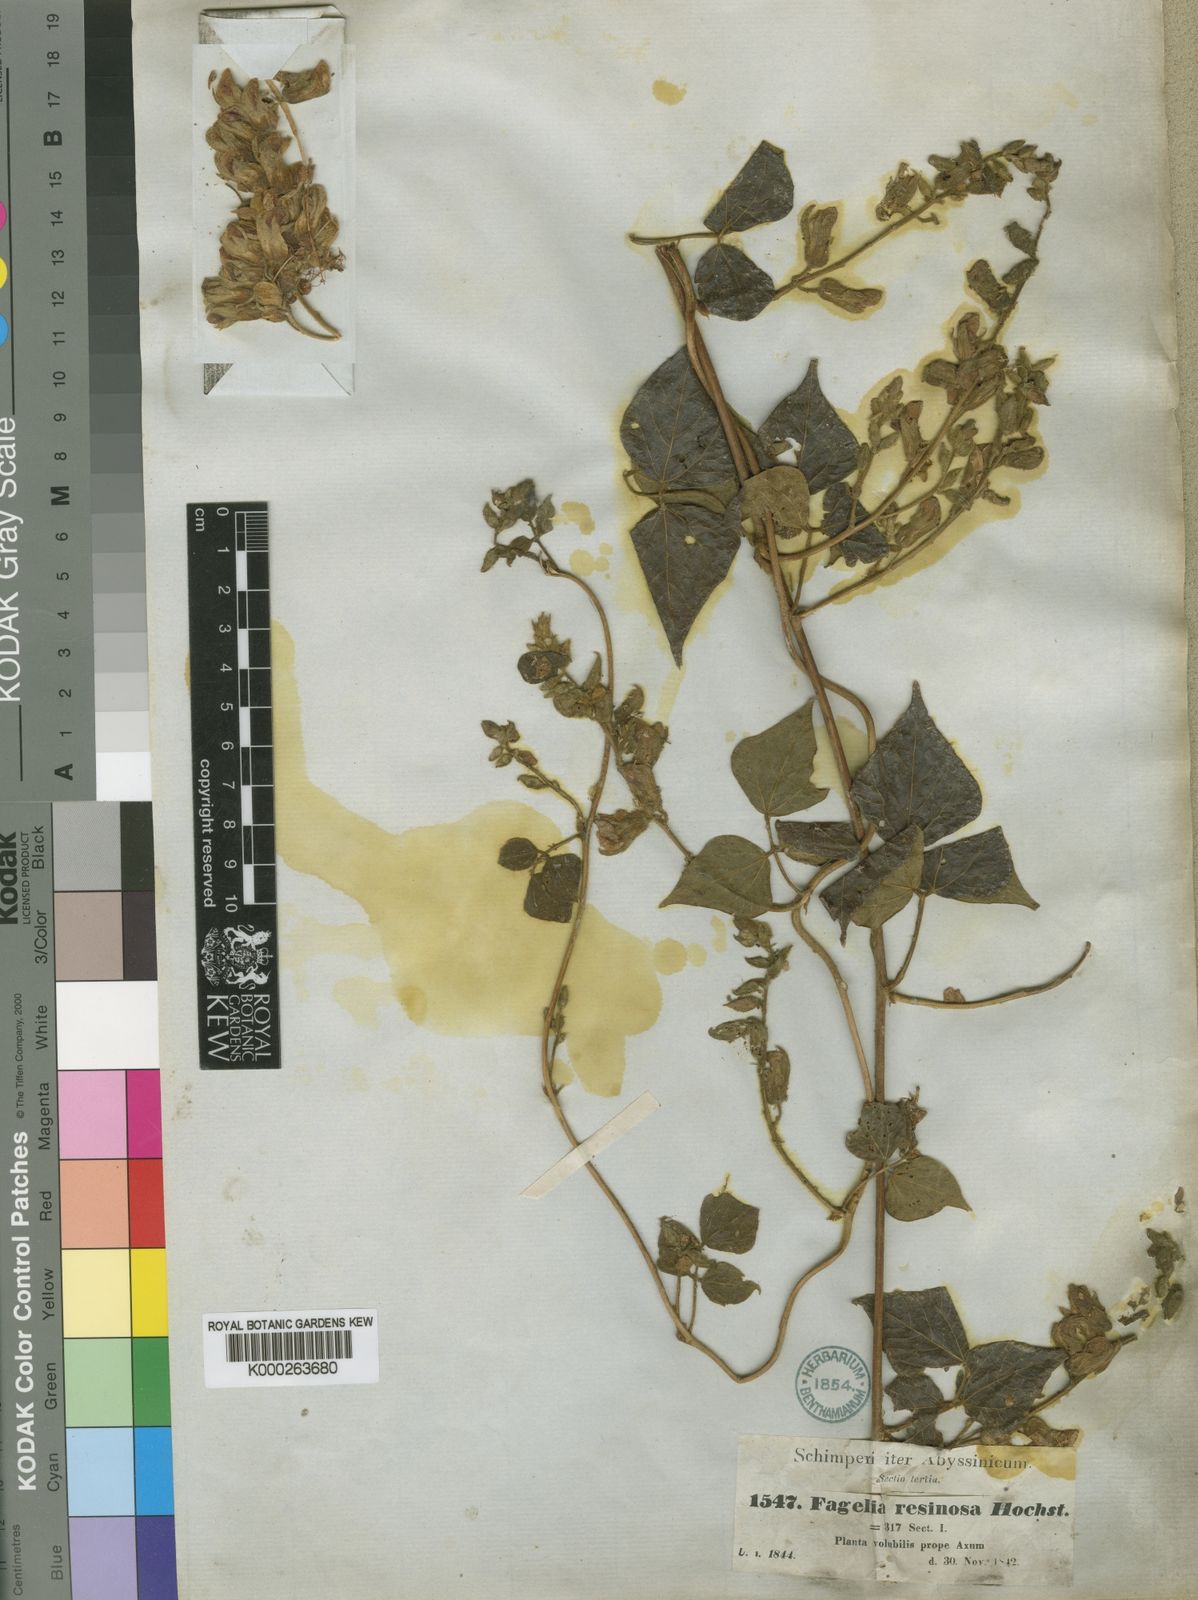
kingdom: Plantae
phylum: Tracheophyta
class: Magnoliopsida
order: Fabales
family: Fabaceae
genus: Rhynchosia
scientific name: Rhynchosia resinosa
